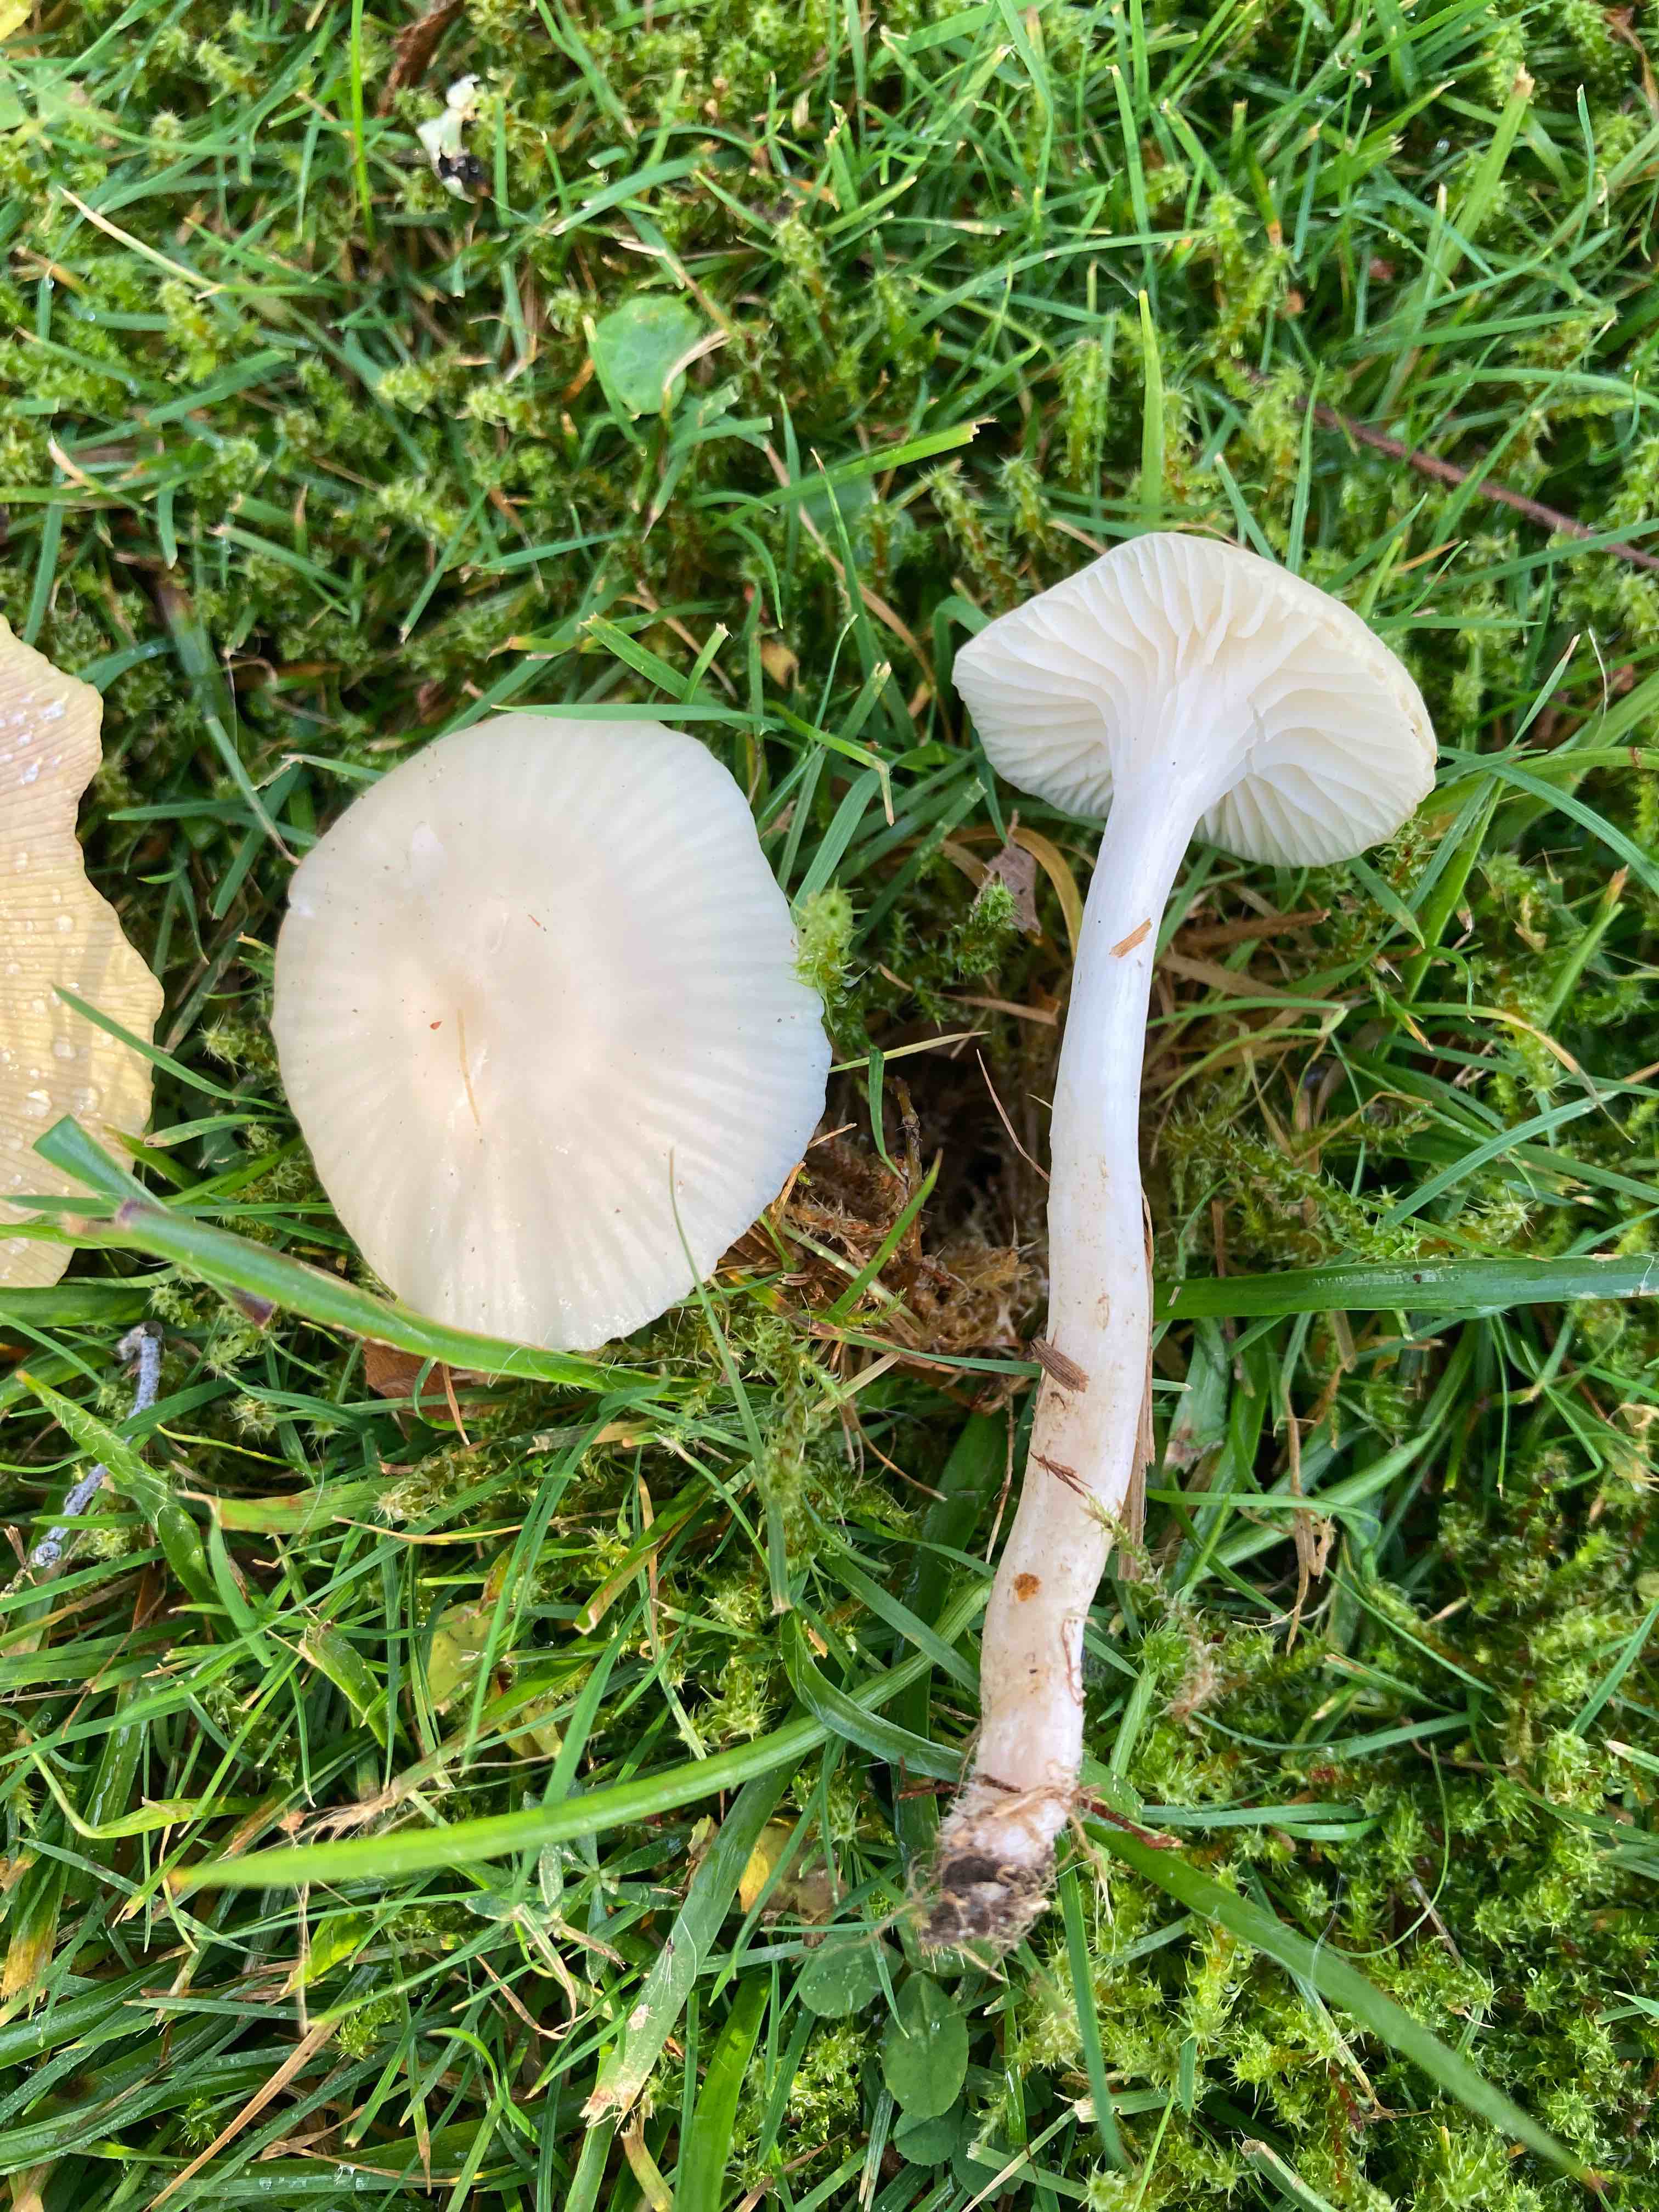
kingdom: Fungi
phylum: Basidiomycota
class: Agaricomycetes
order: Agaricales
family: Hygrophoraceae
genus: Cuphophyllus
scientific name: Cuphophyllus virgineus
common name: snehvid vokshat
